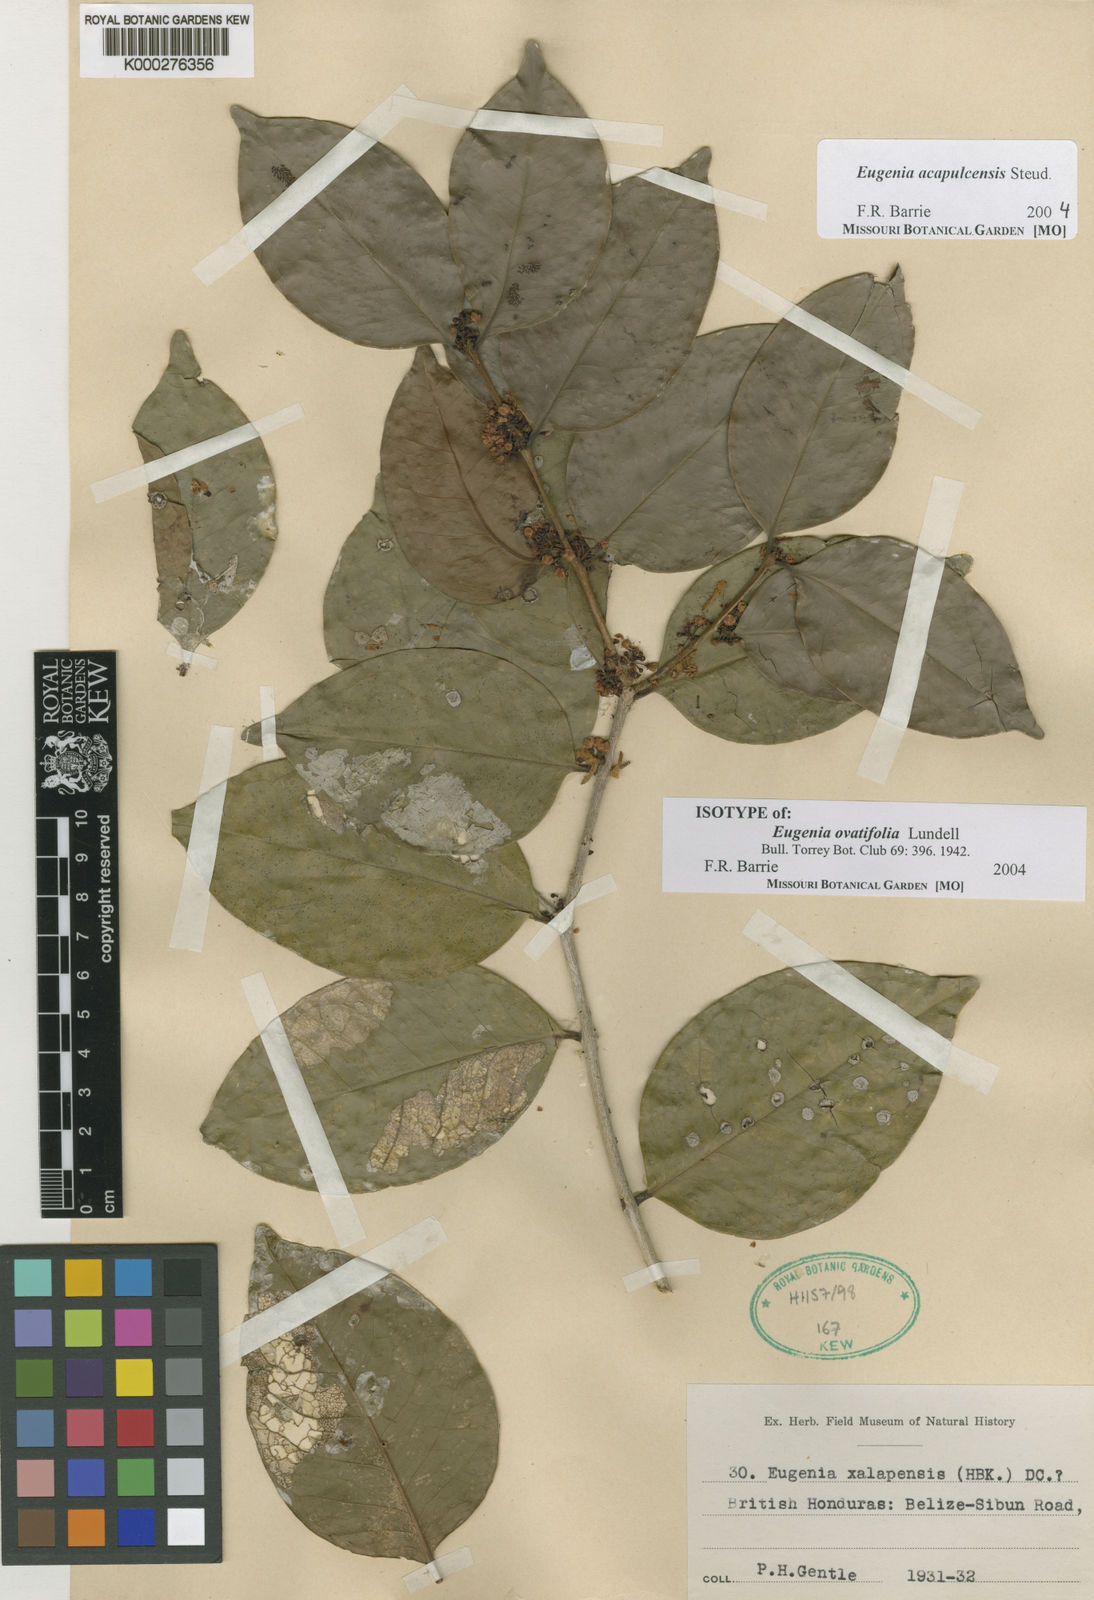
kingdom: Plantae
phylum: Tracheophyta
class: Magnoliopsida
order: Myrtales
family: Myrtaceae
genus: Eugenia
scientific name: Eugenia acapulcensis
